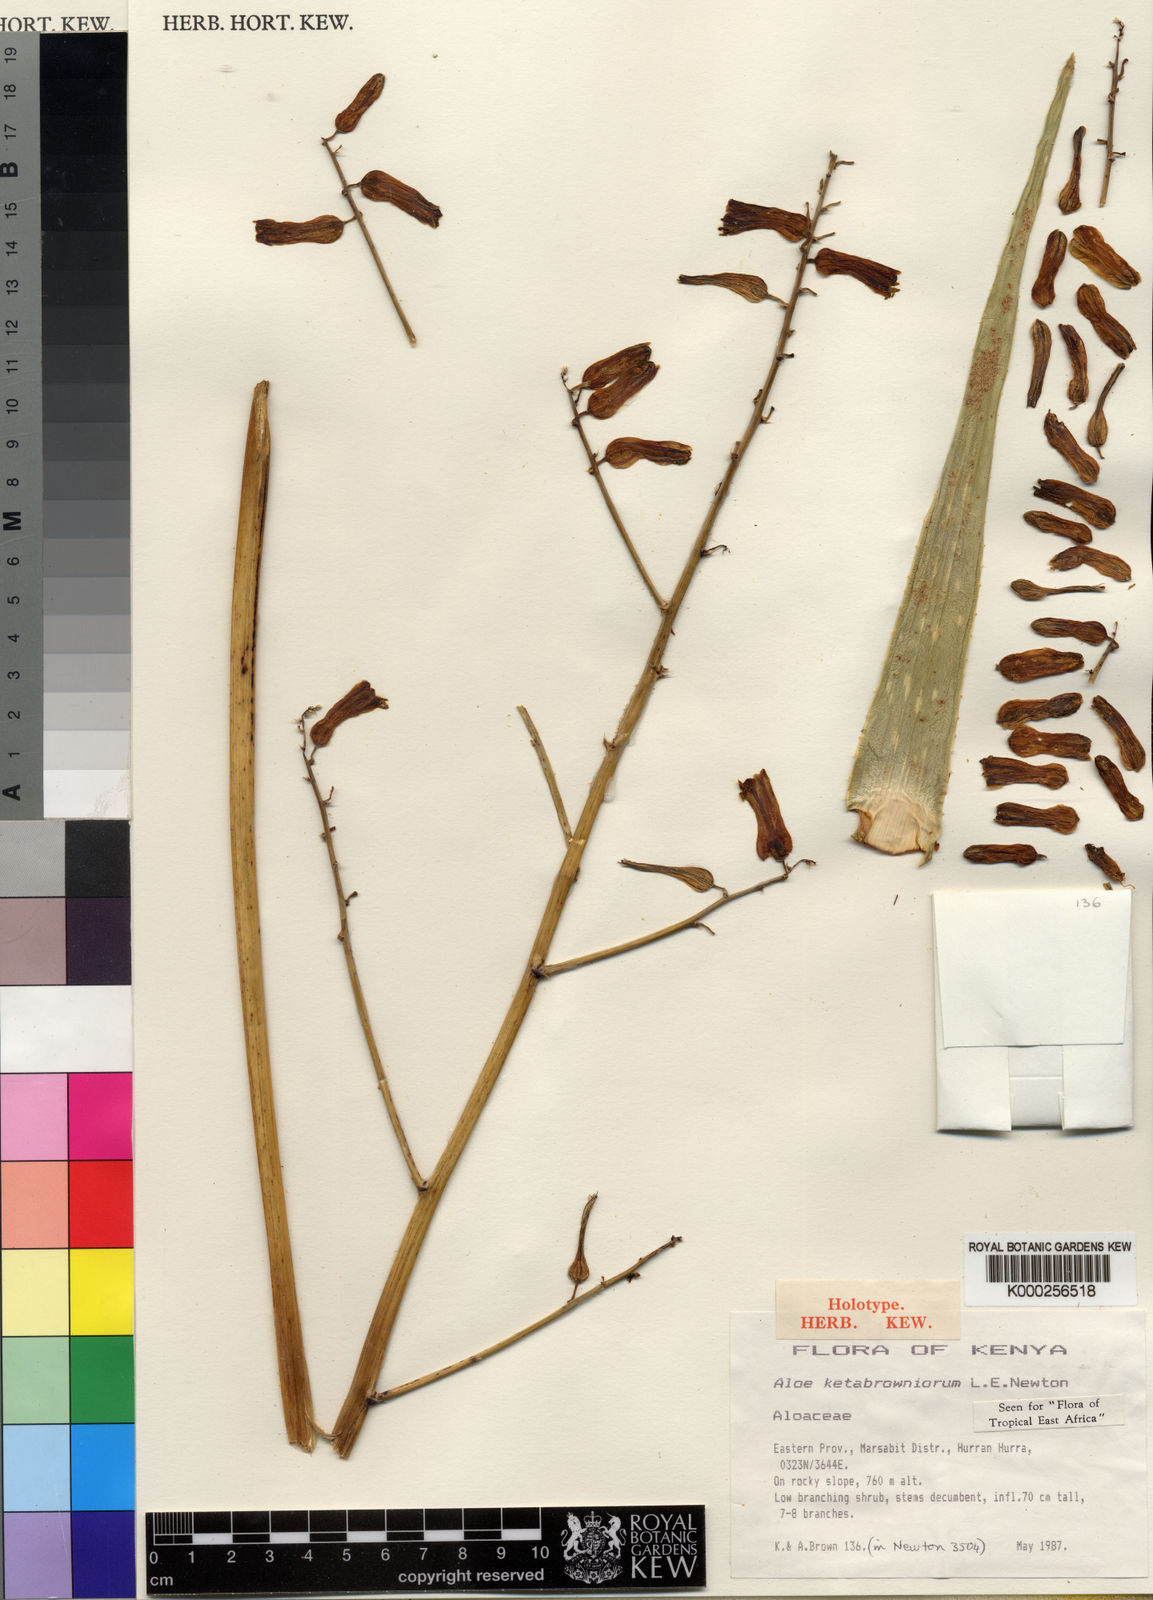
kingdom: Plantae
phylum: Tracheophyta
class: Liliopsida
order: Asparagales
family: Asphodelaceae
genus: Aloe
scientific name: Aloe ketabrowniorum
